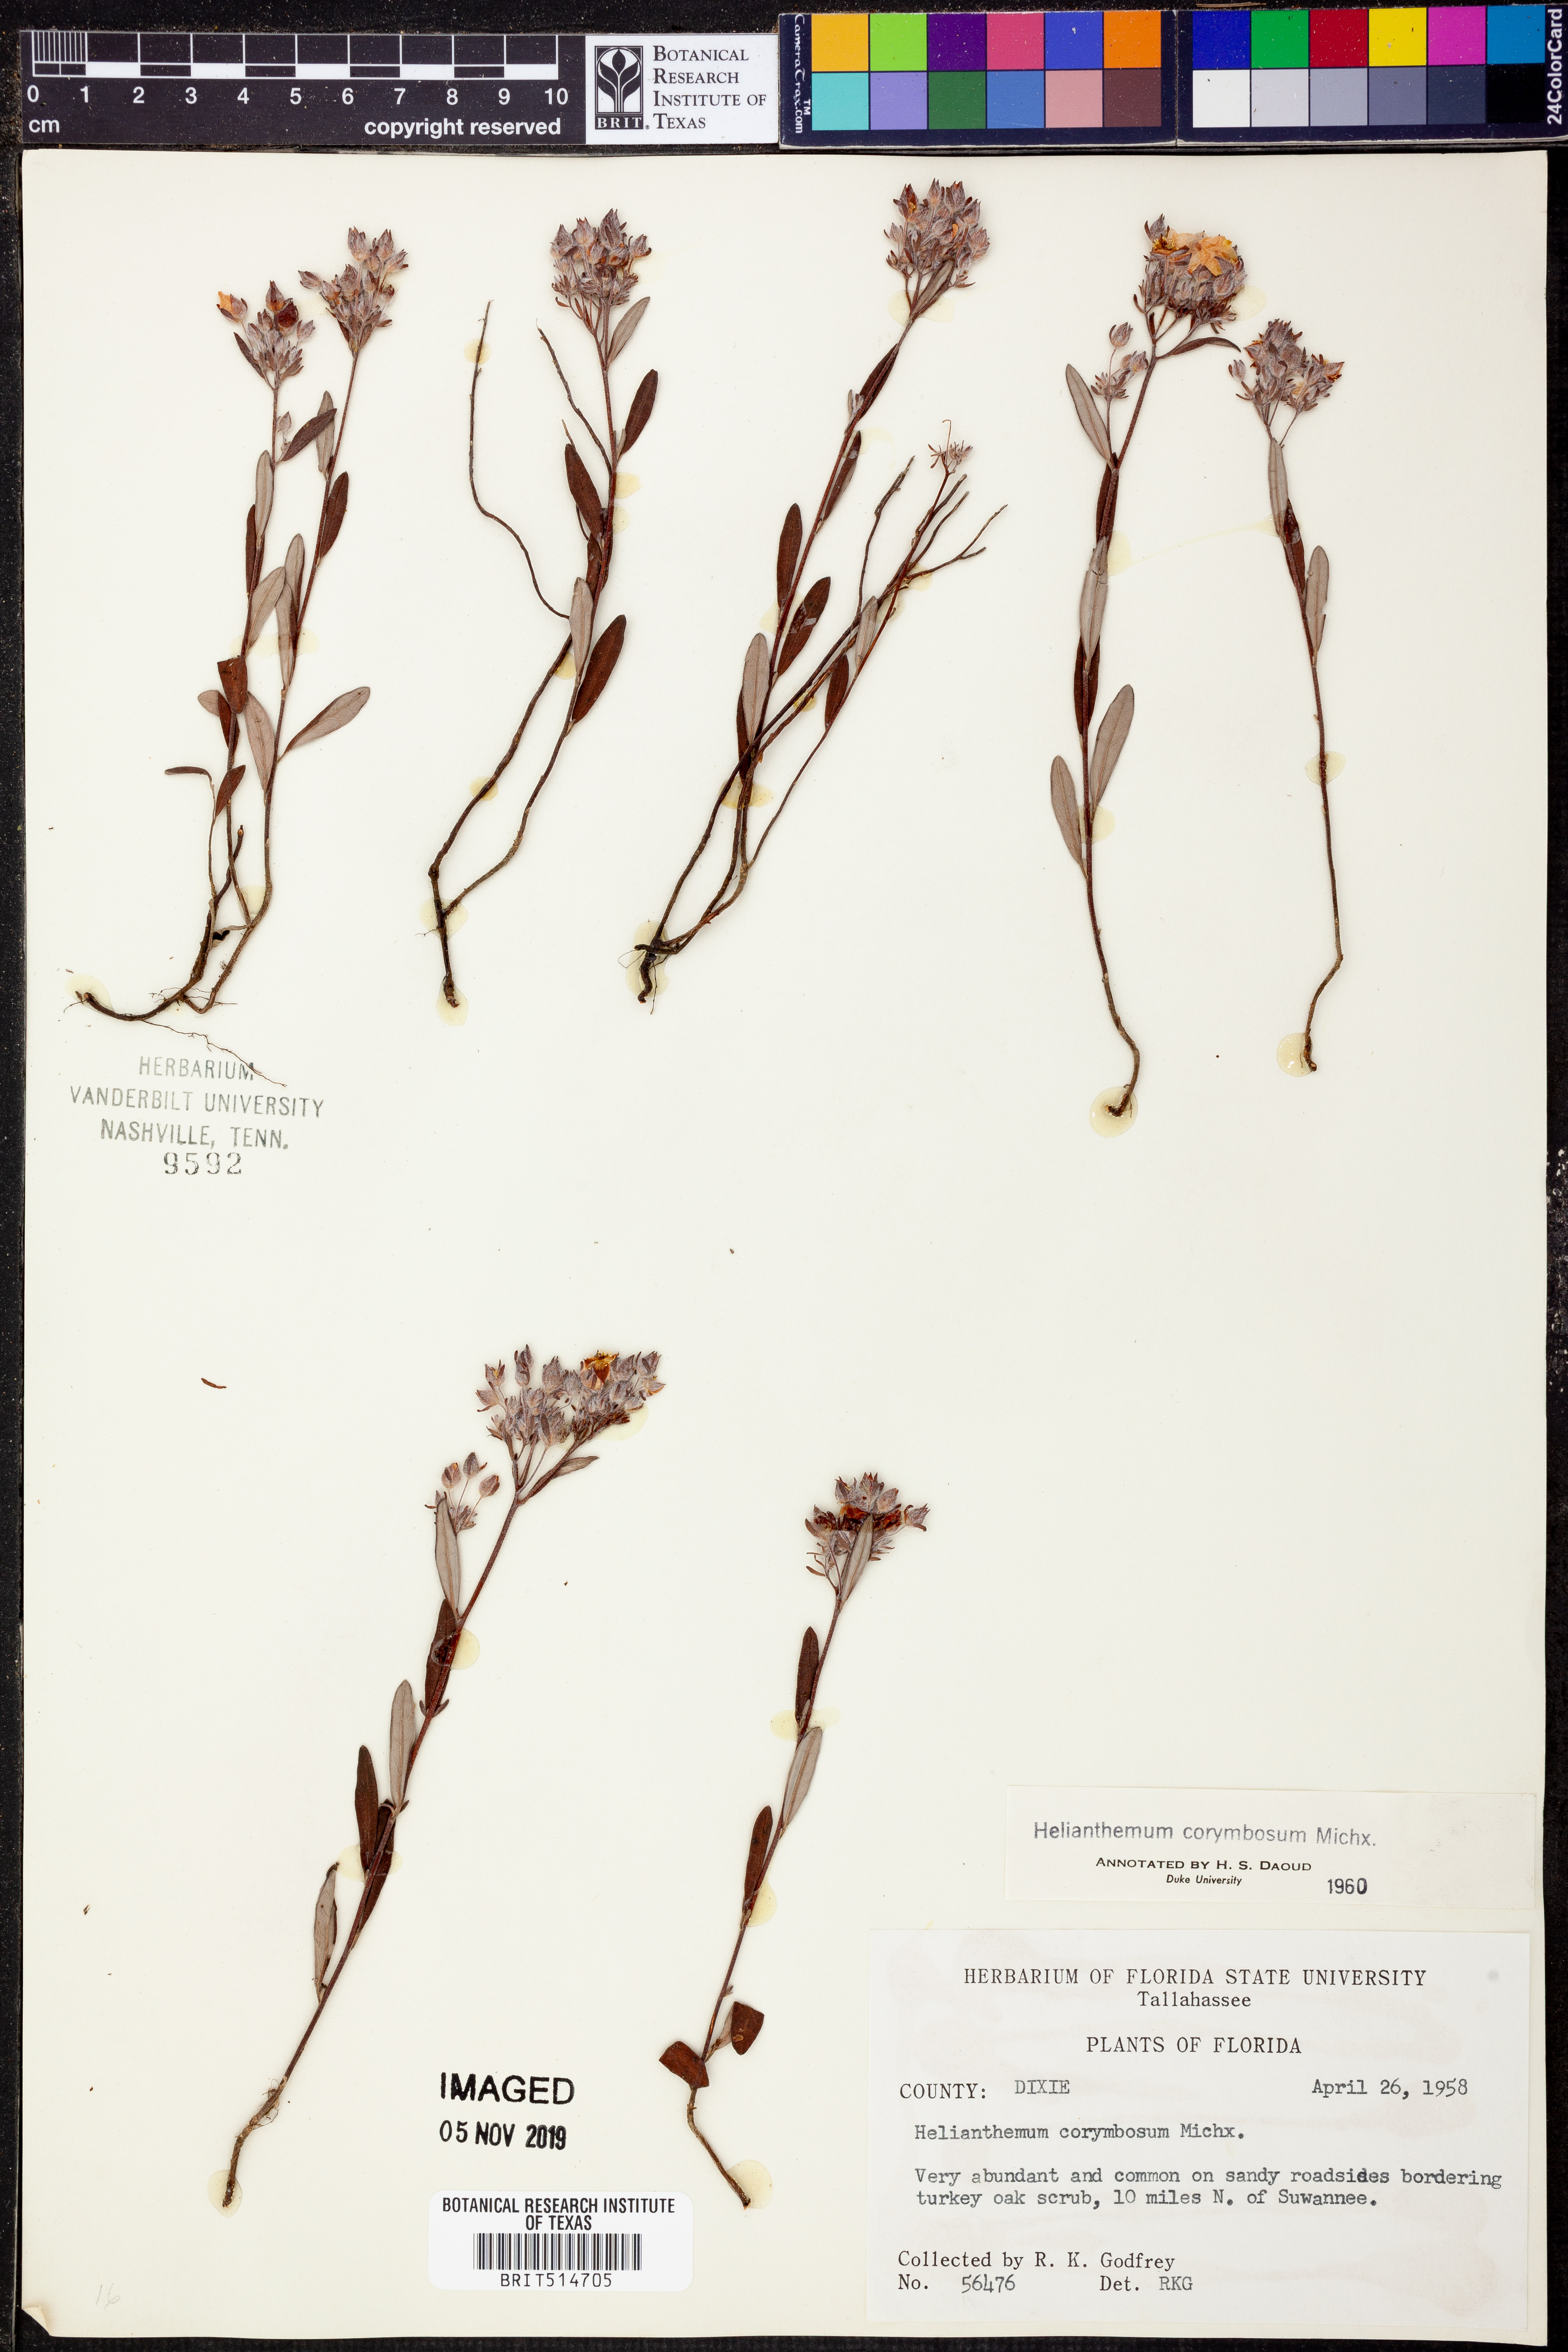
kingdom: Plantae
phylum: Tracheophyta
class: Magnoliopsida
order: Malvales
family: Cistaceae
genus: Crocanthemum
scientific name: Crocanthemum corymbosum
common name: Pinebarren sun-rose
